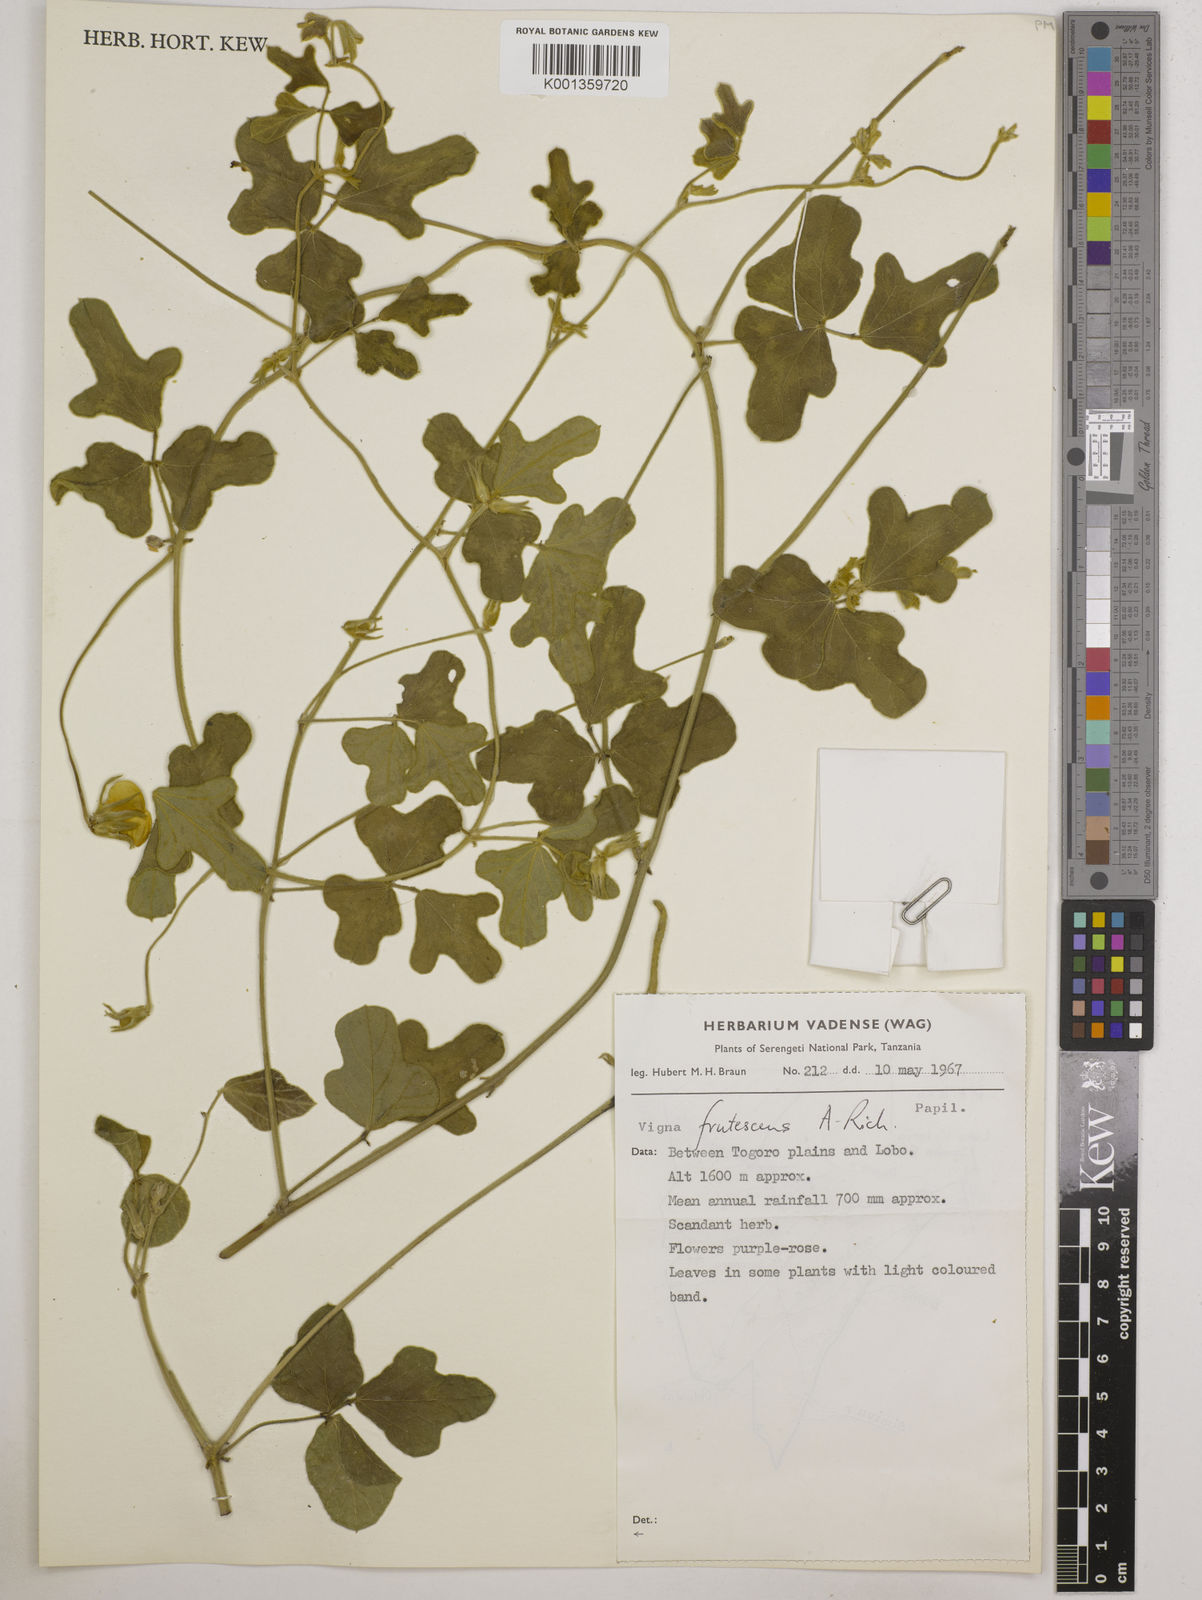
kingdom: Plantae
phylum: Tracheophyta
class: Magnoliopsida
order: Fabales
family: Fabaceae
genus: Vigna
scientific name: Vigna frutescens
